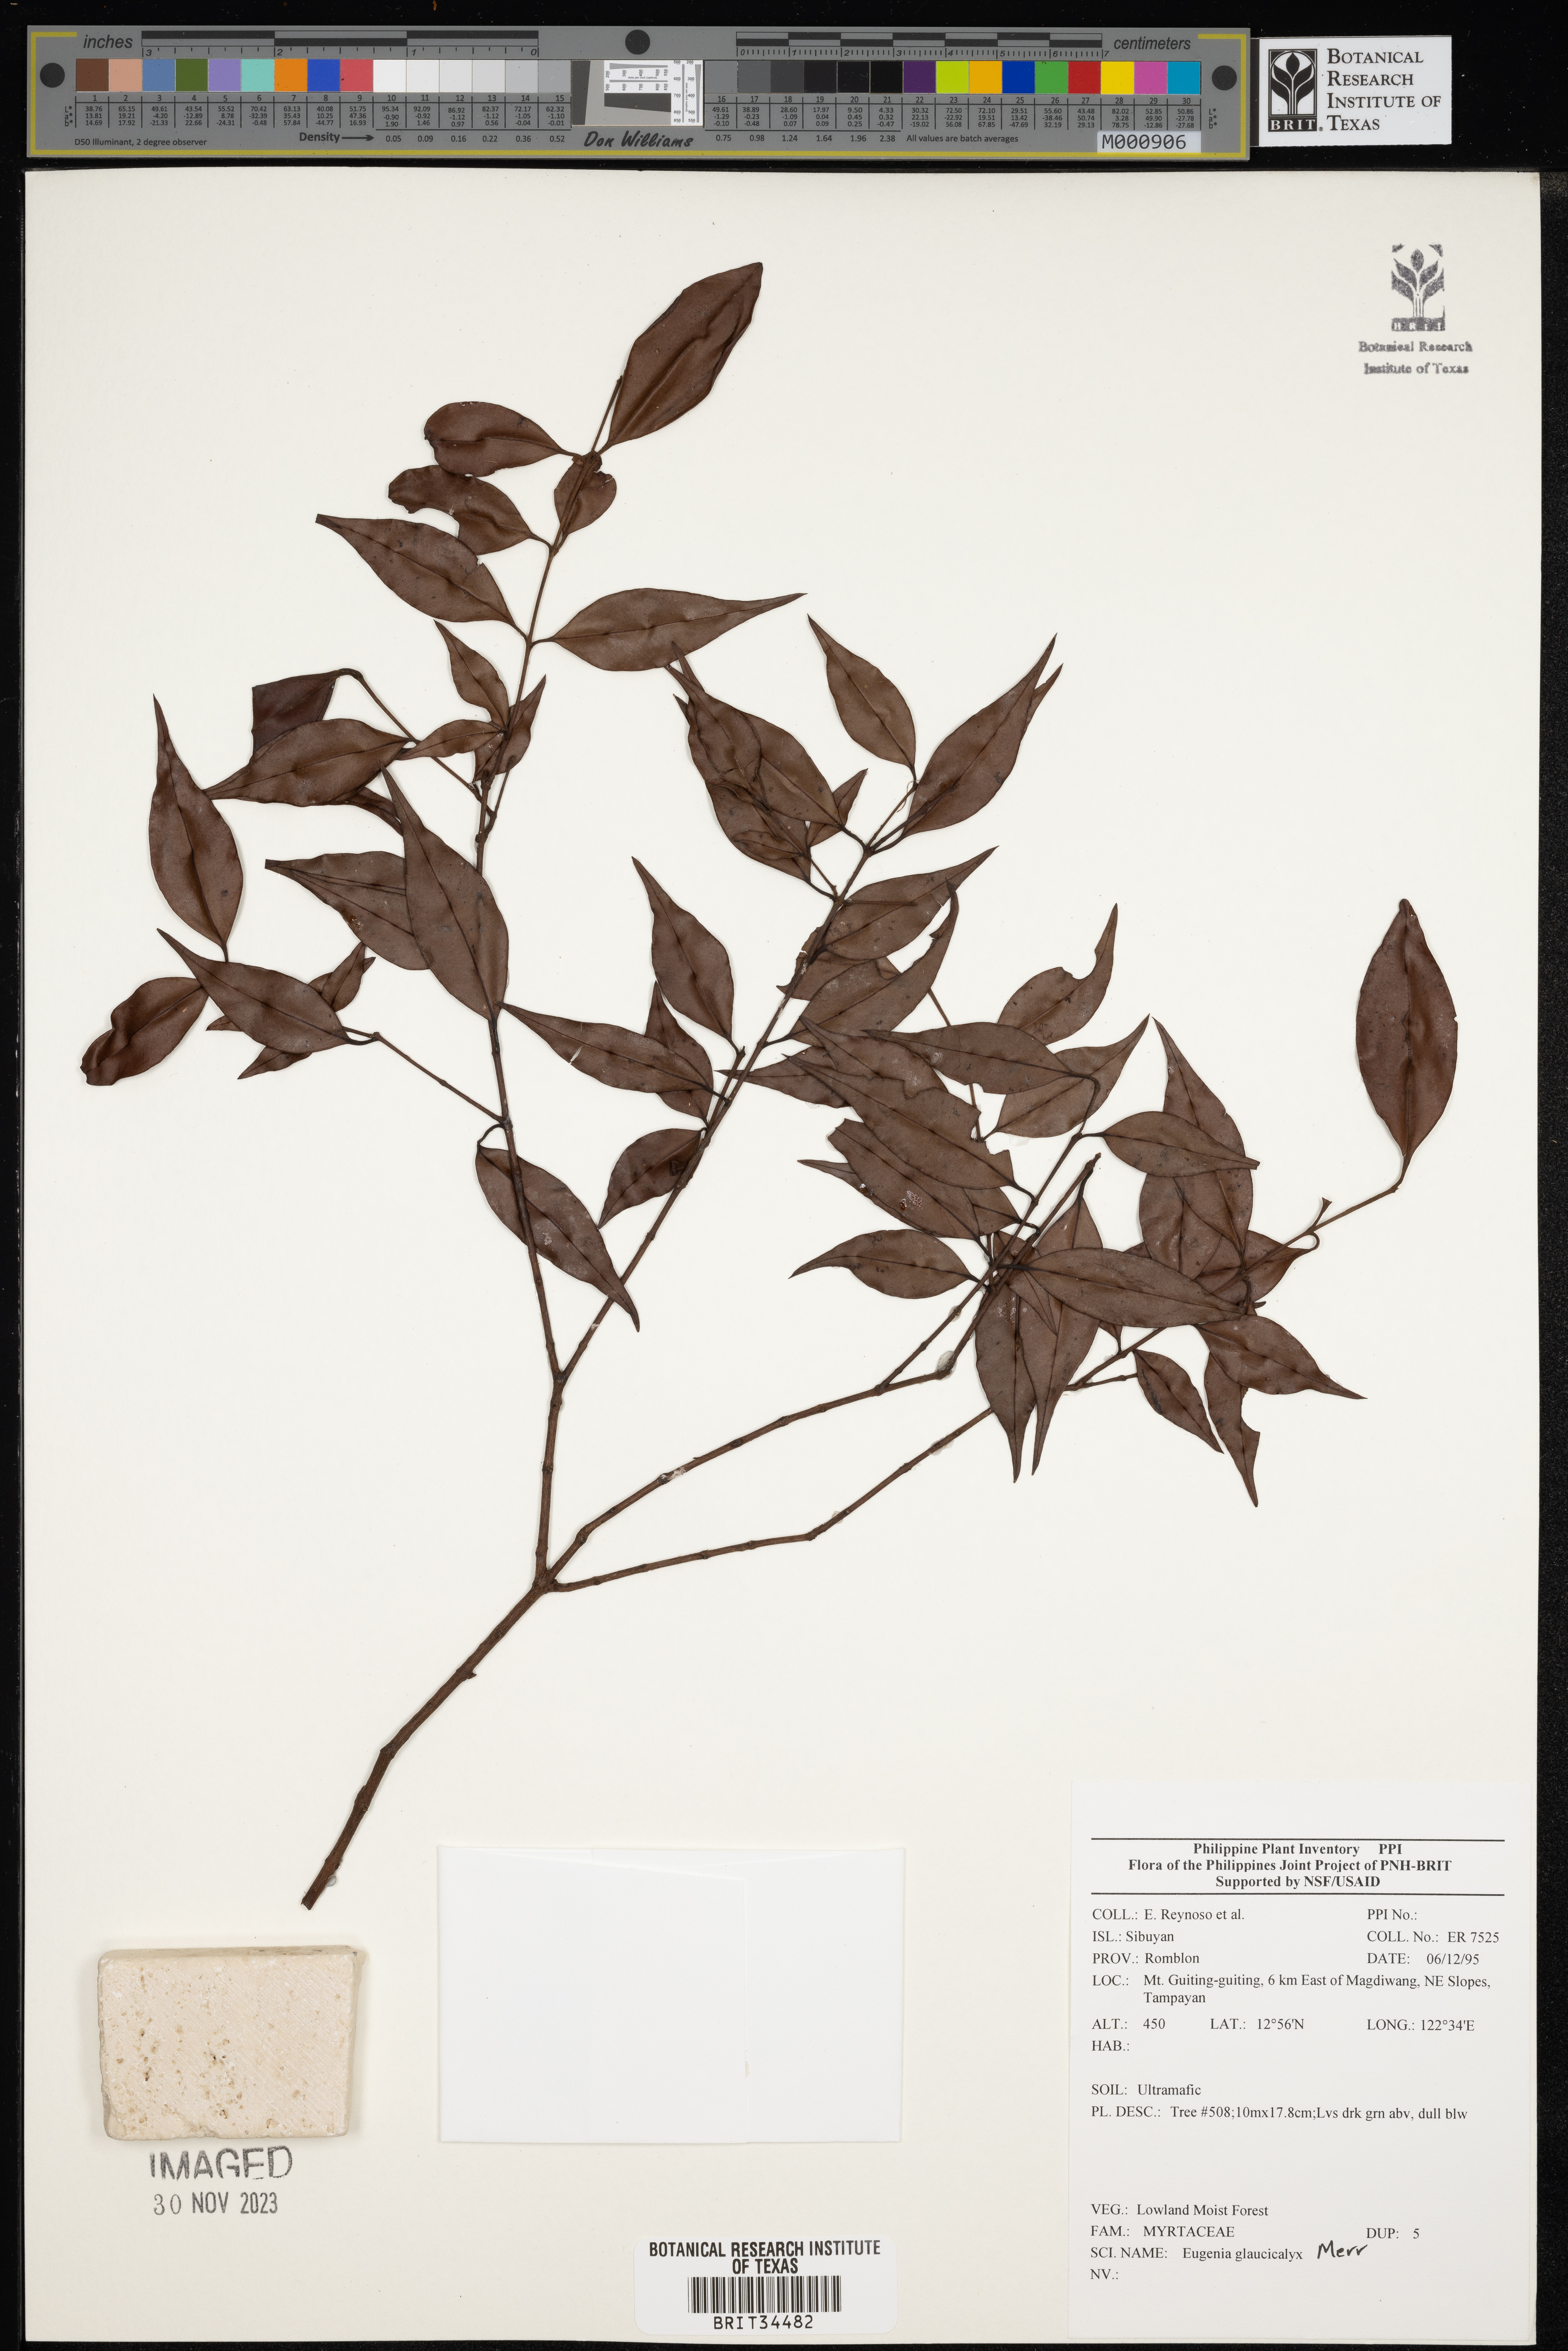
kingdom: Plantae
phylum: Tracheophyta
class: Magnoliopsida
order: Myrtales
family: Myrtaceae
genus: Eugenia
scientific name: Eugenia
